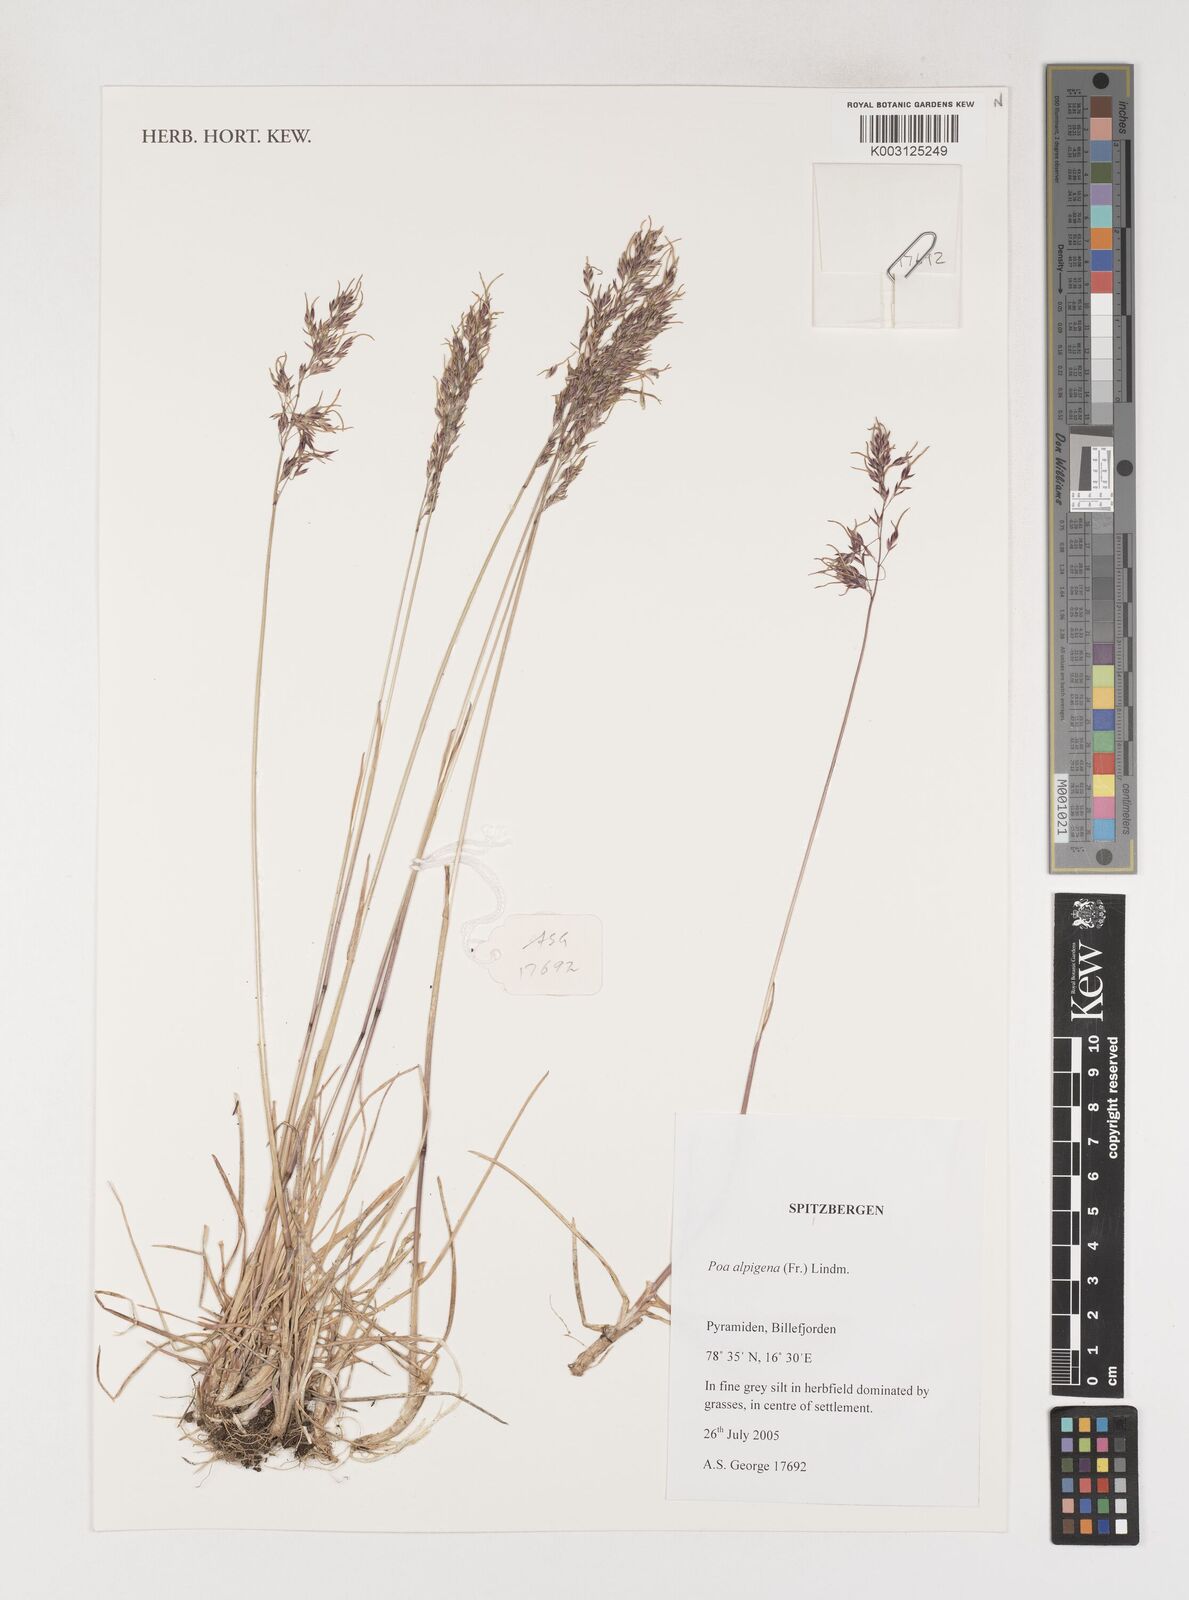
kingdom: Plantae
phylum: Tracheophyta
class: Liliopsida
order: Poales
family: Poaceae
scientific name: Poaceae
